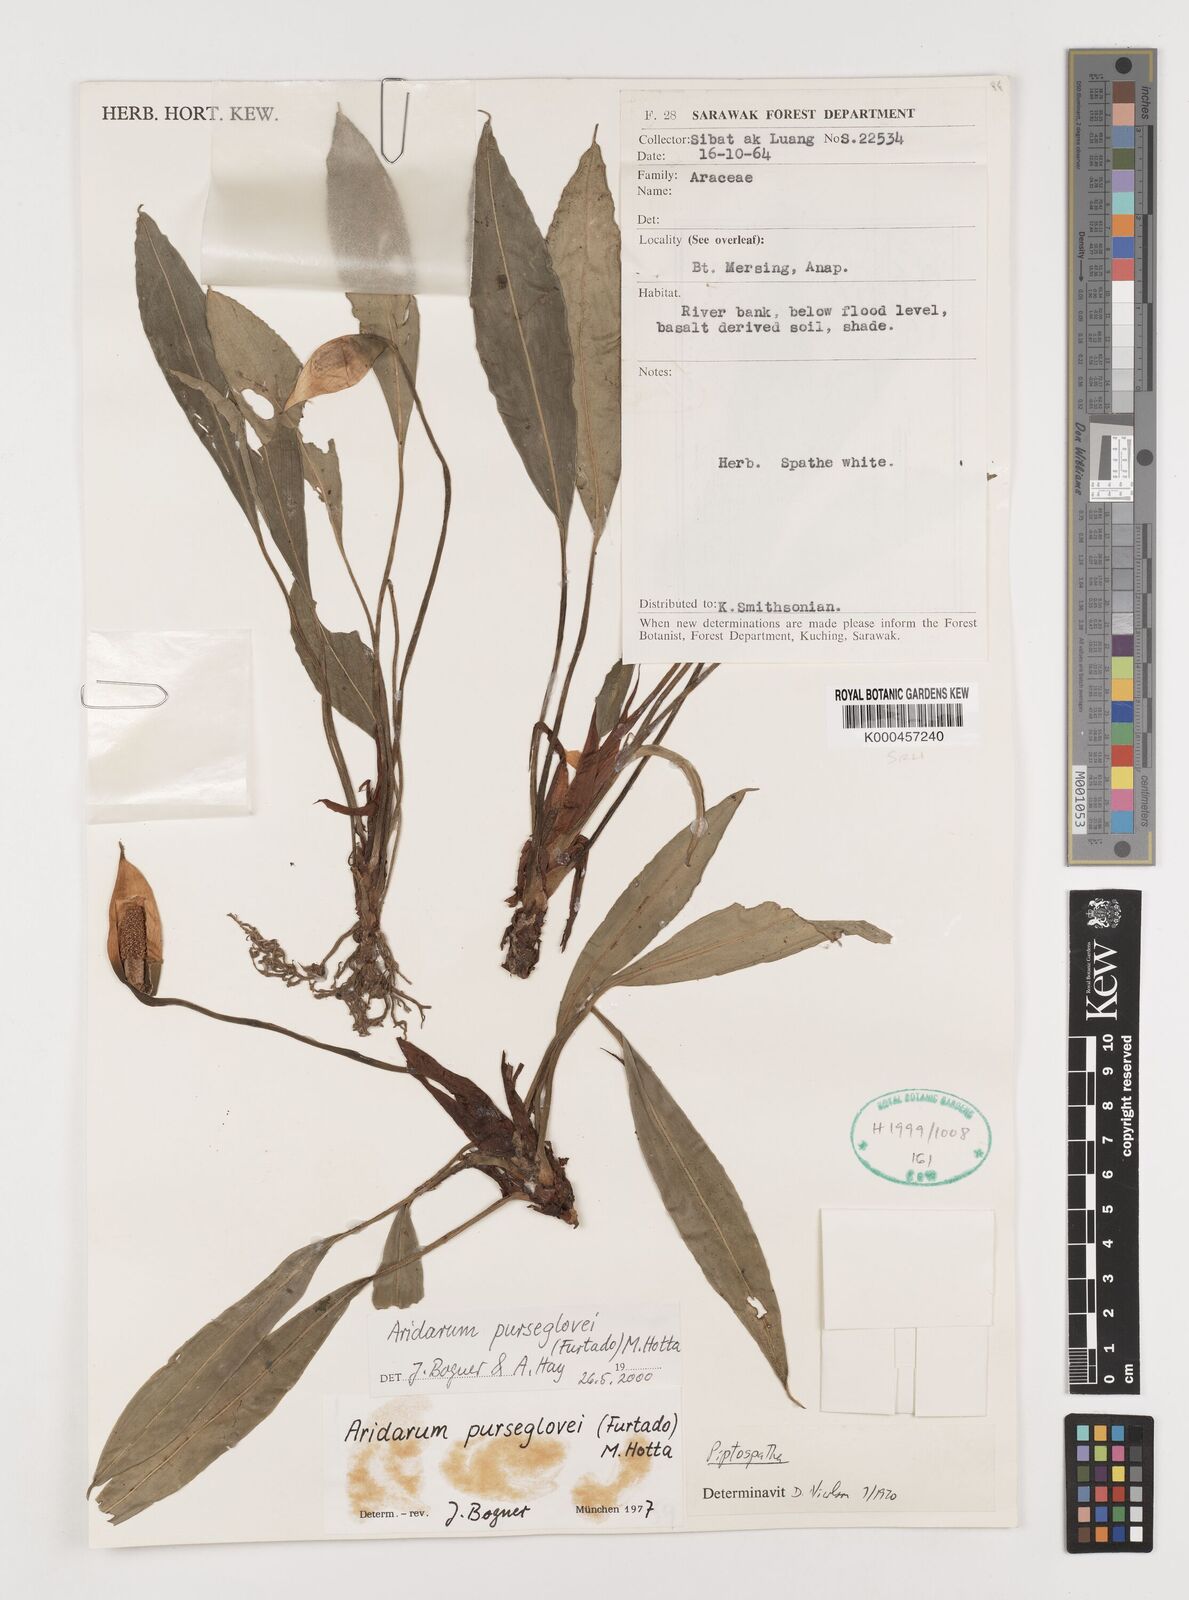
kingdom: Plantae
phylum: Tracheophyta
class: Liliopsida
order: Alismatales
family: Araceae
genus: Burttianthus
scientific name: Burttianthus purseglovei
